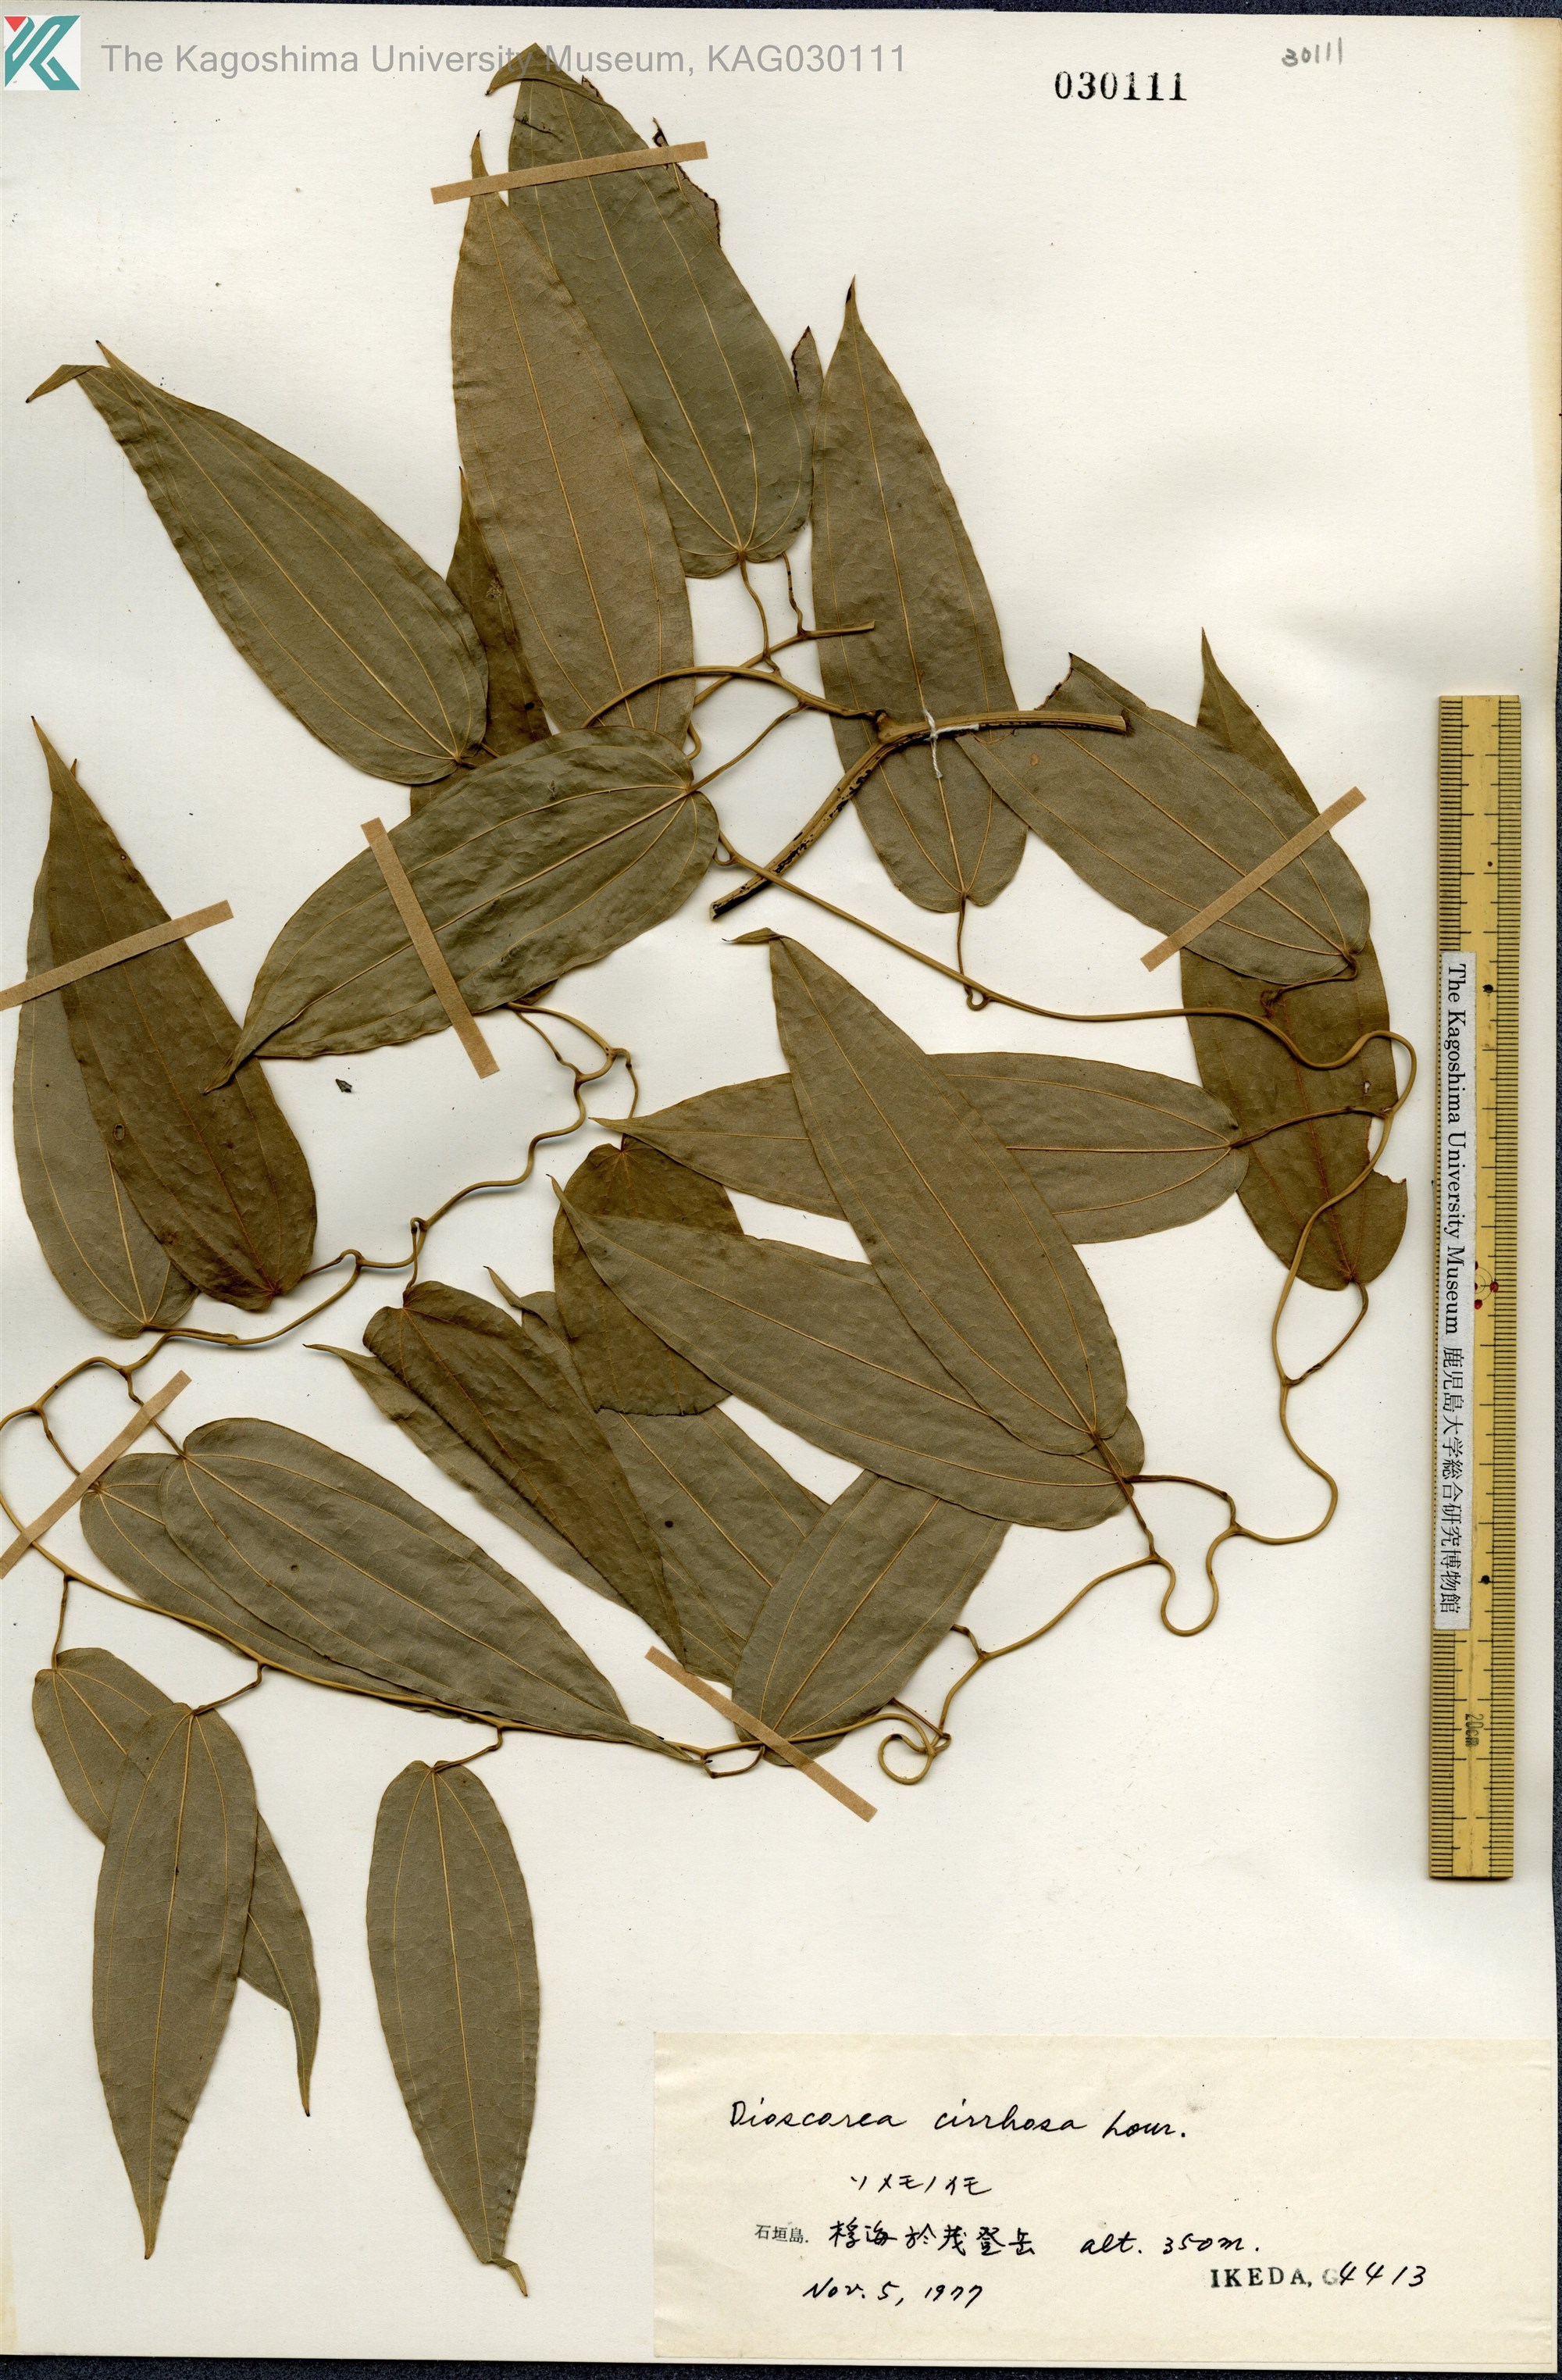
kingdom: Plantae
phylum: Tracheophyta
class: Liliopsida
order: Dioscoreales
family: Dioscoreaceae
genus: Dioscorea
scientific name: Dioscorea cirrhosa
